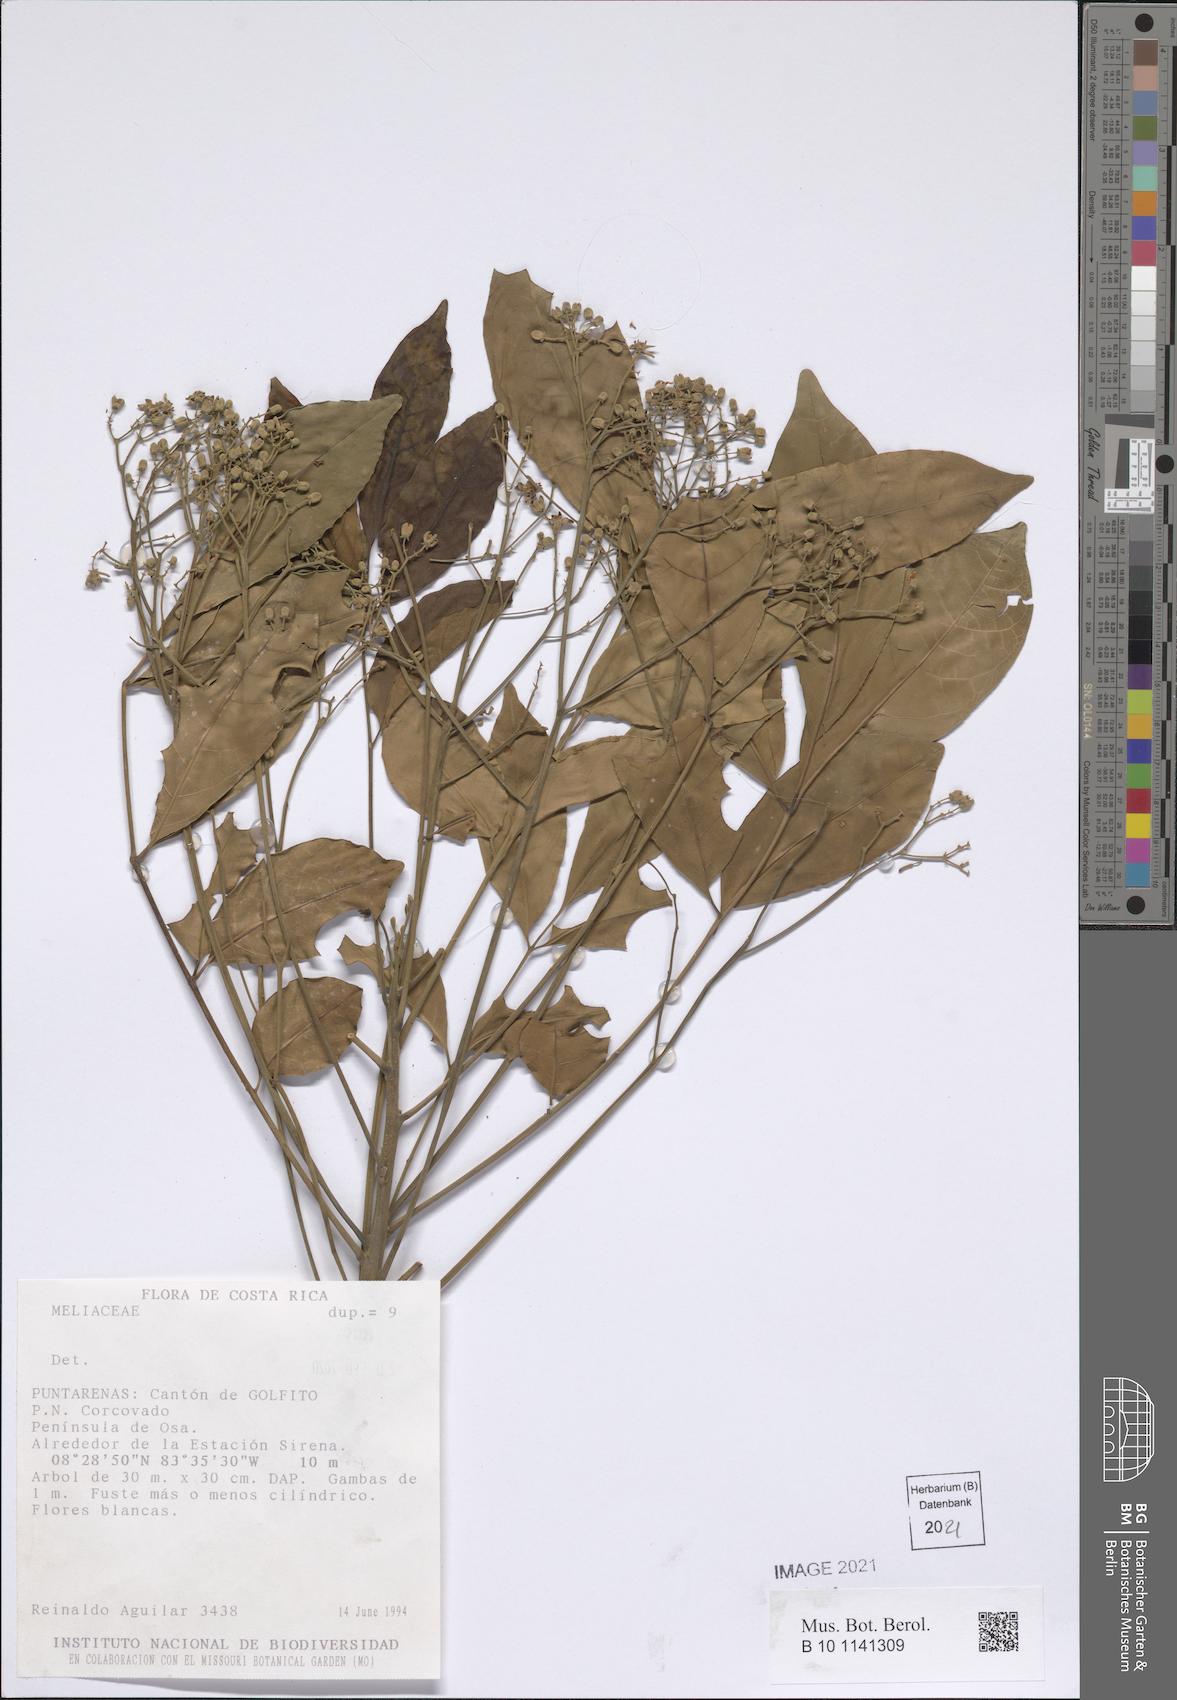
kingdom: Plantae
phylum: Tracheophyta
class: Magnoliopsida
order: Sapindales
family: Meliaceae
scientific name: Meliaceae
